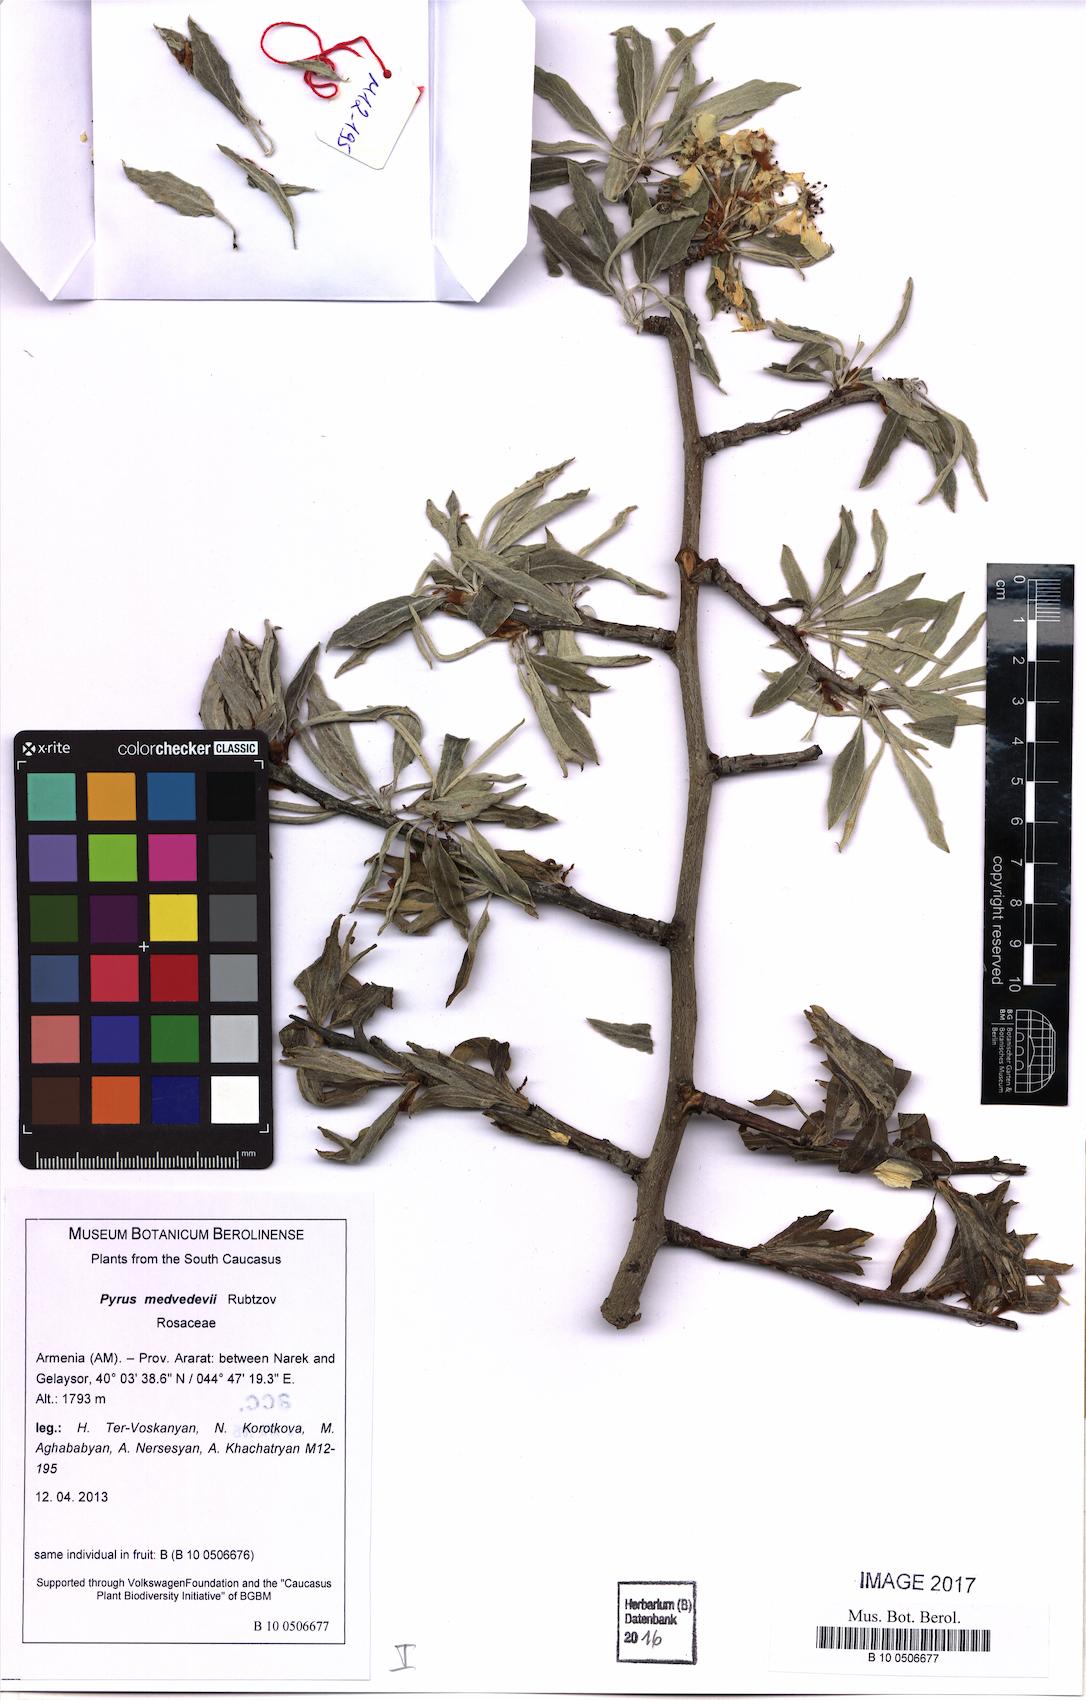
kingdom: Plantae
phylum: Tracheophyta
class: Magnoliopsida
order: Rosales
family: Rosaceae
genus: Pyrus
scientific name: Pyrus medvedevii
